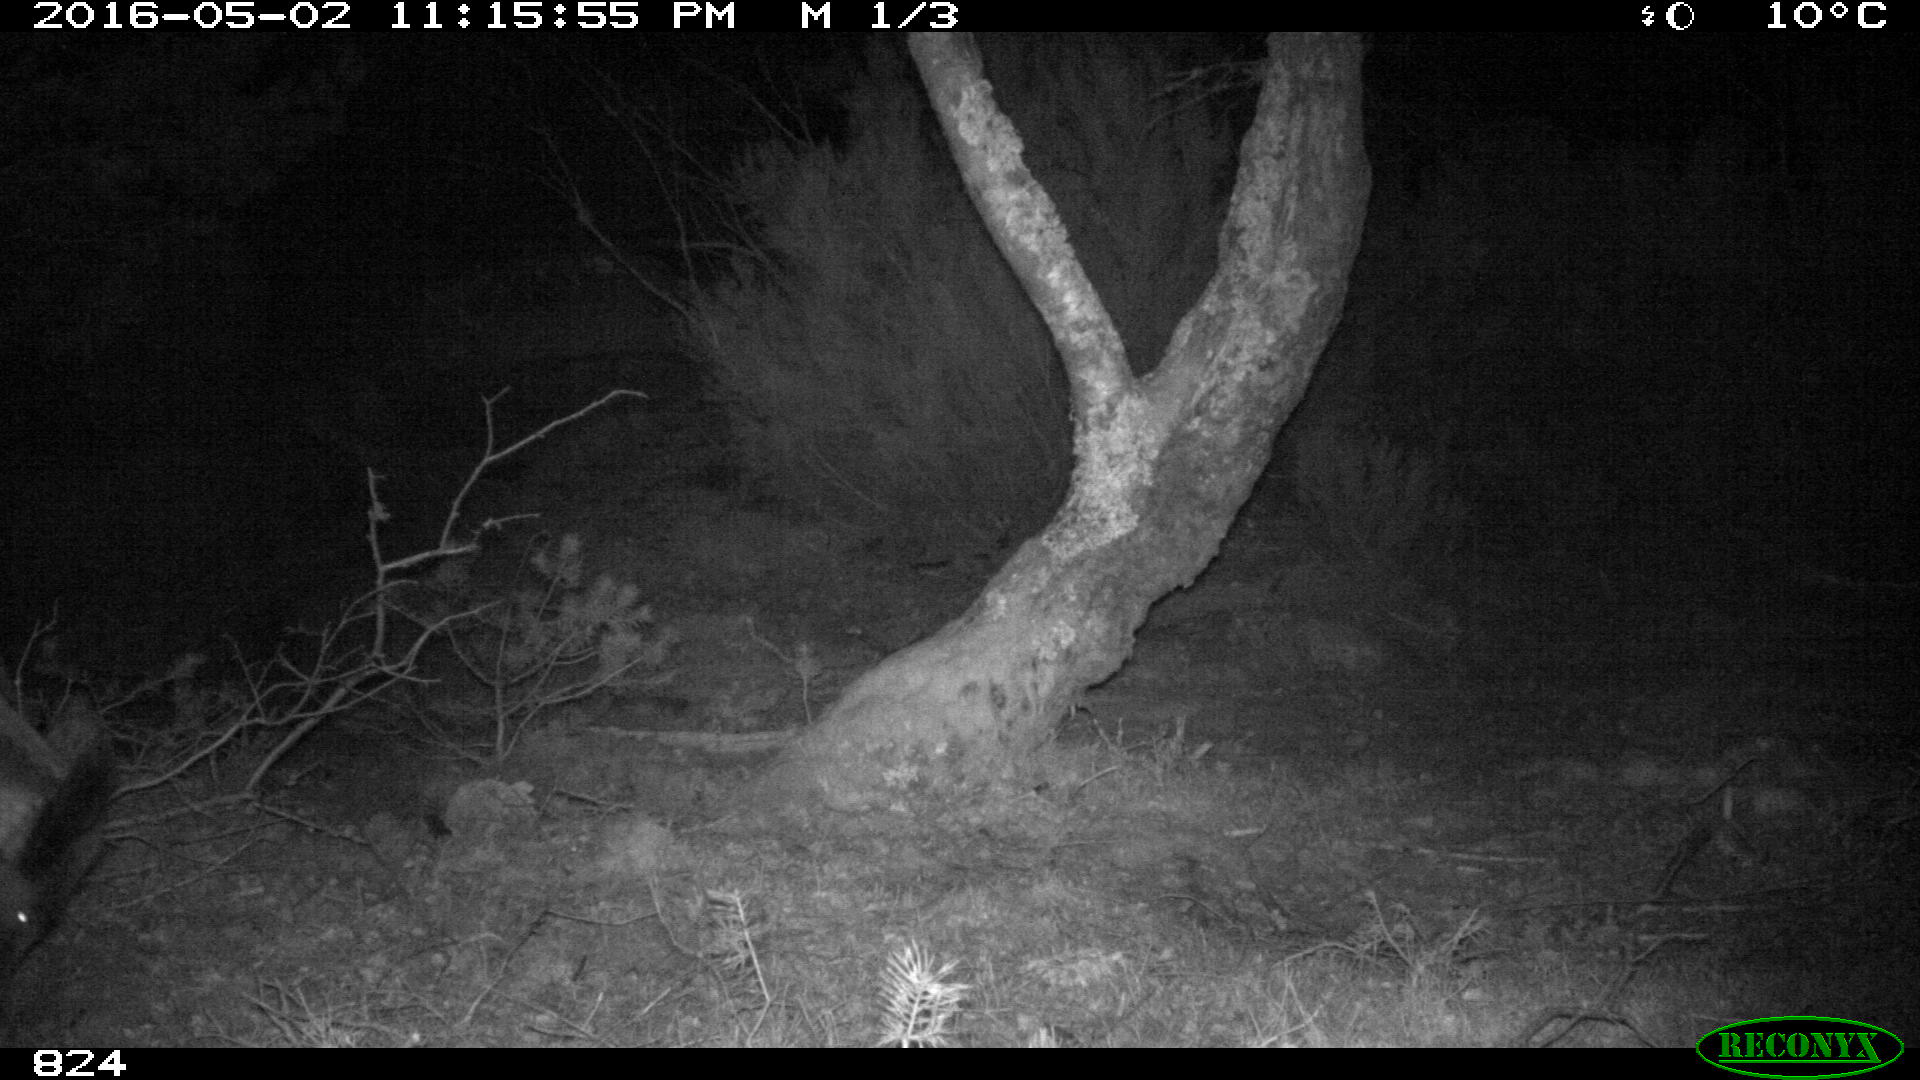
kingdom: Animalia
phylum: Chordata
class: Mammalia
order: Artiodactyla
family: Suidae
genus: Sus
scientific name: Sus scrofa
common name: Wild boar
